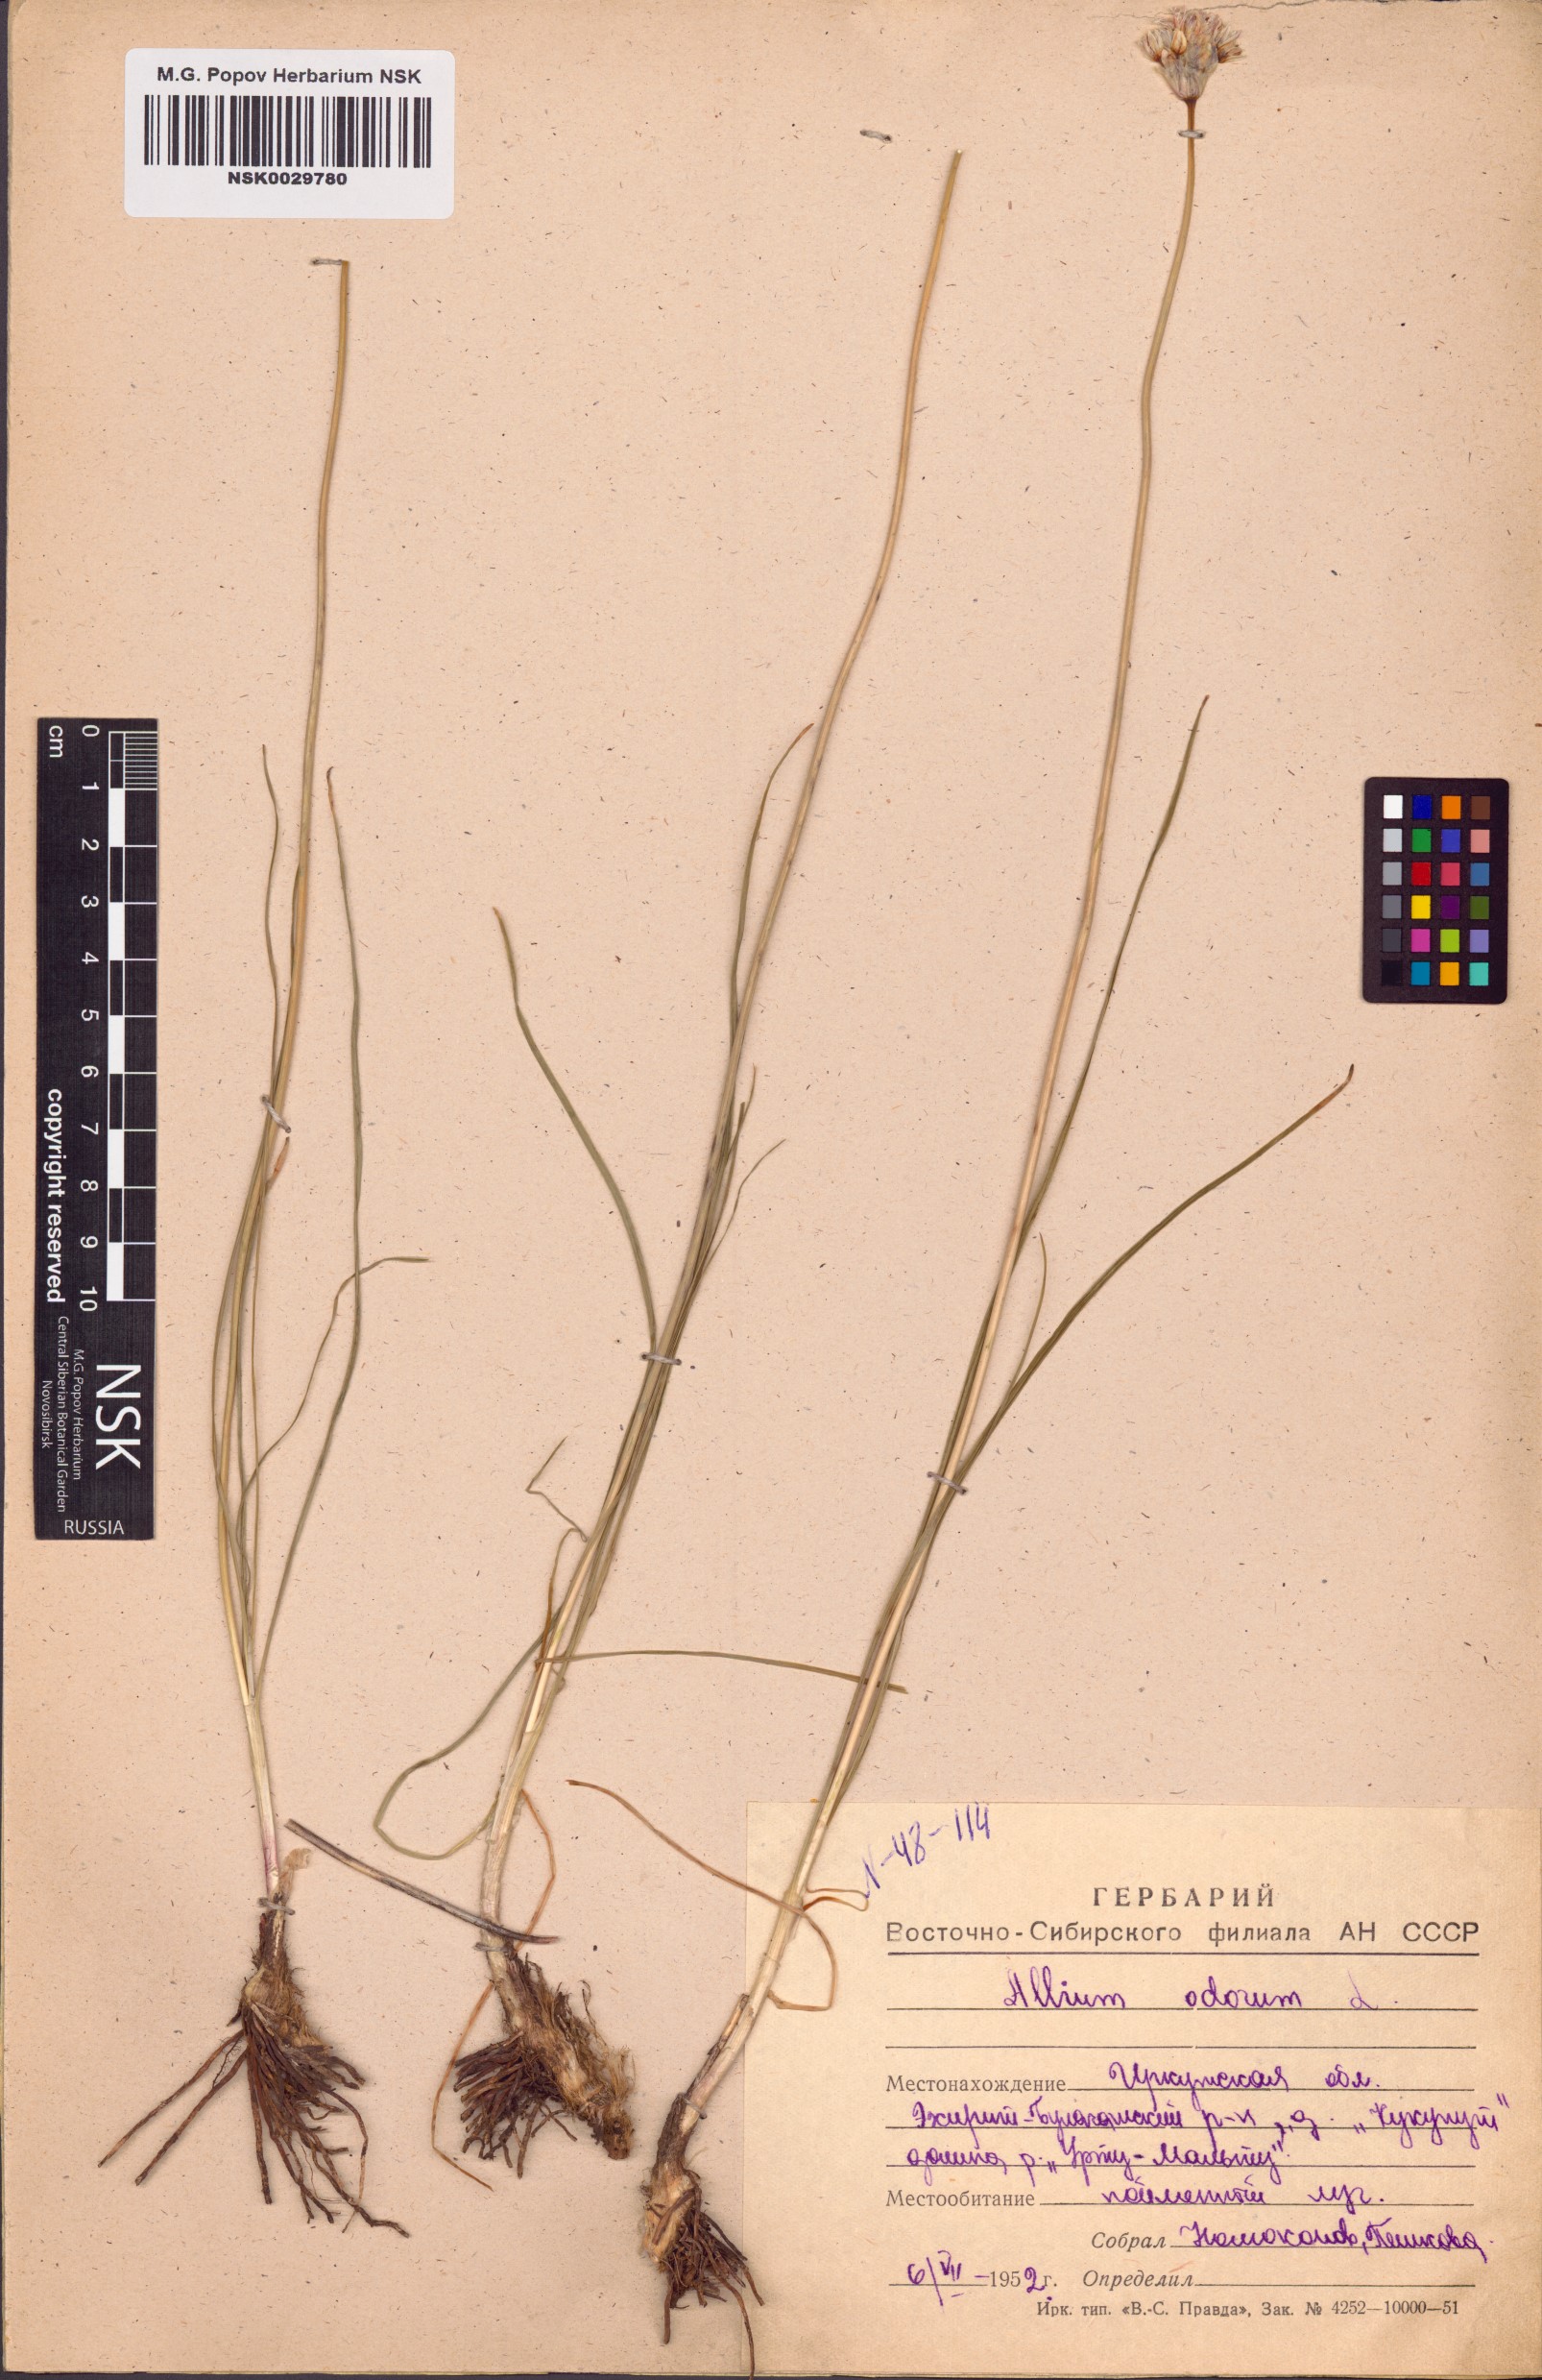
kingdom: Plantae
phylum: Tracheophyta
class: Liliopsida
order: Asparagales
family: Amaryllidaceae
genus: Allium
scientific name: Allium ramosum
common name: Fragrant garlic
